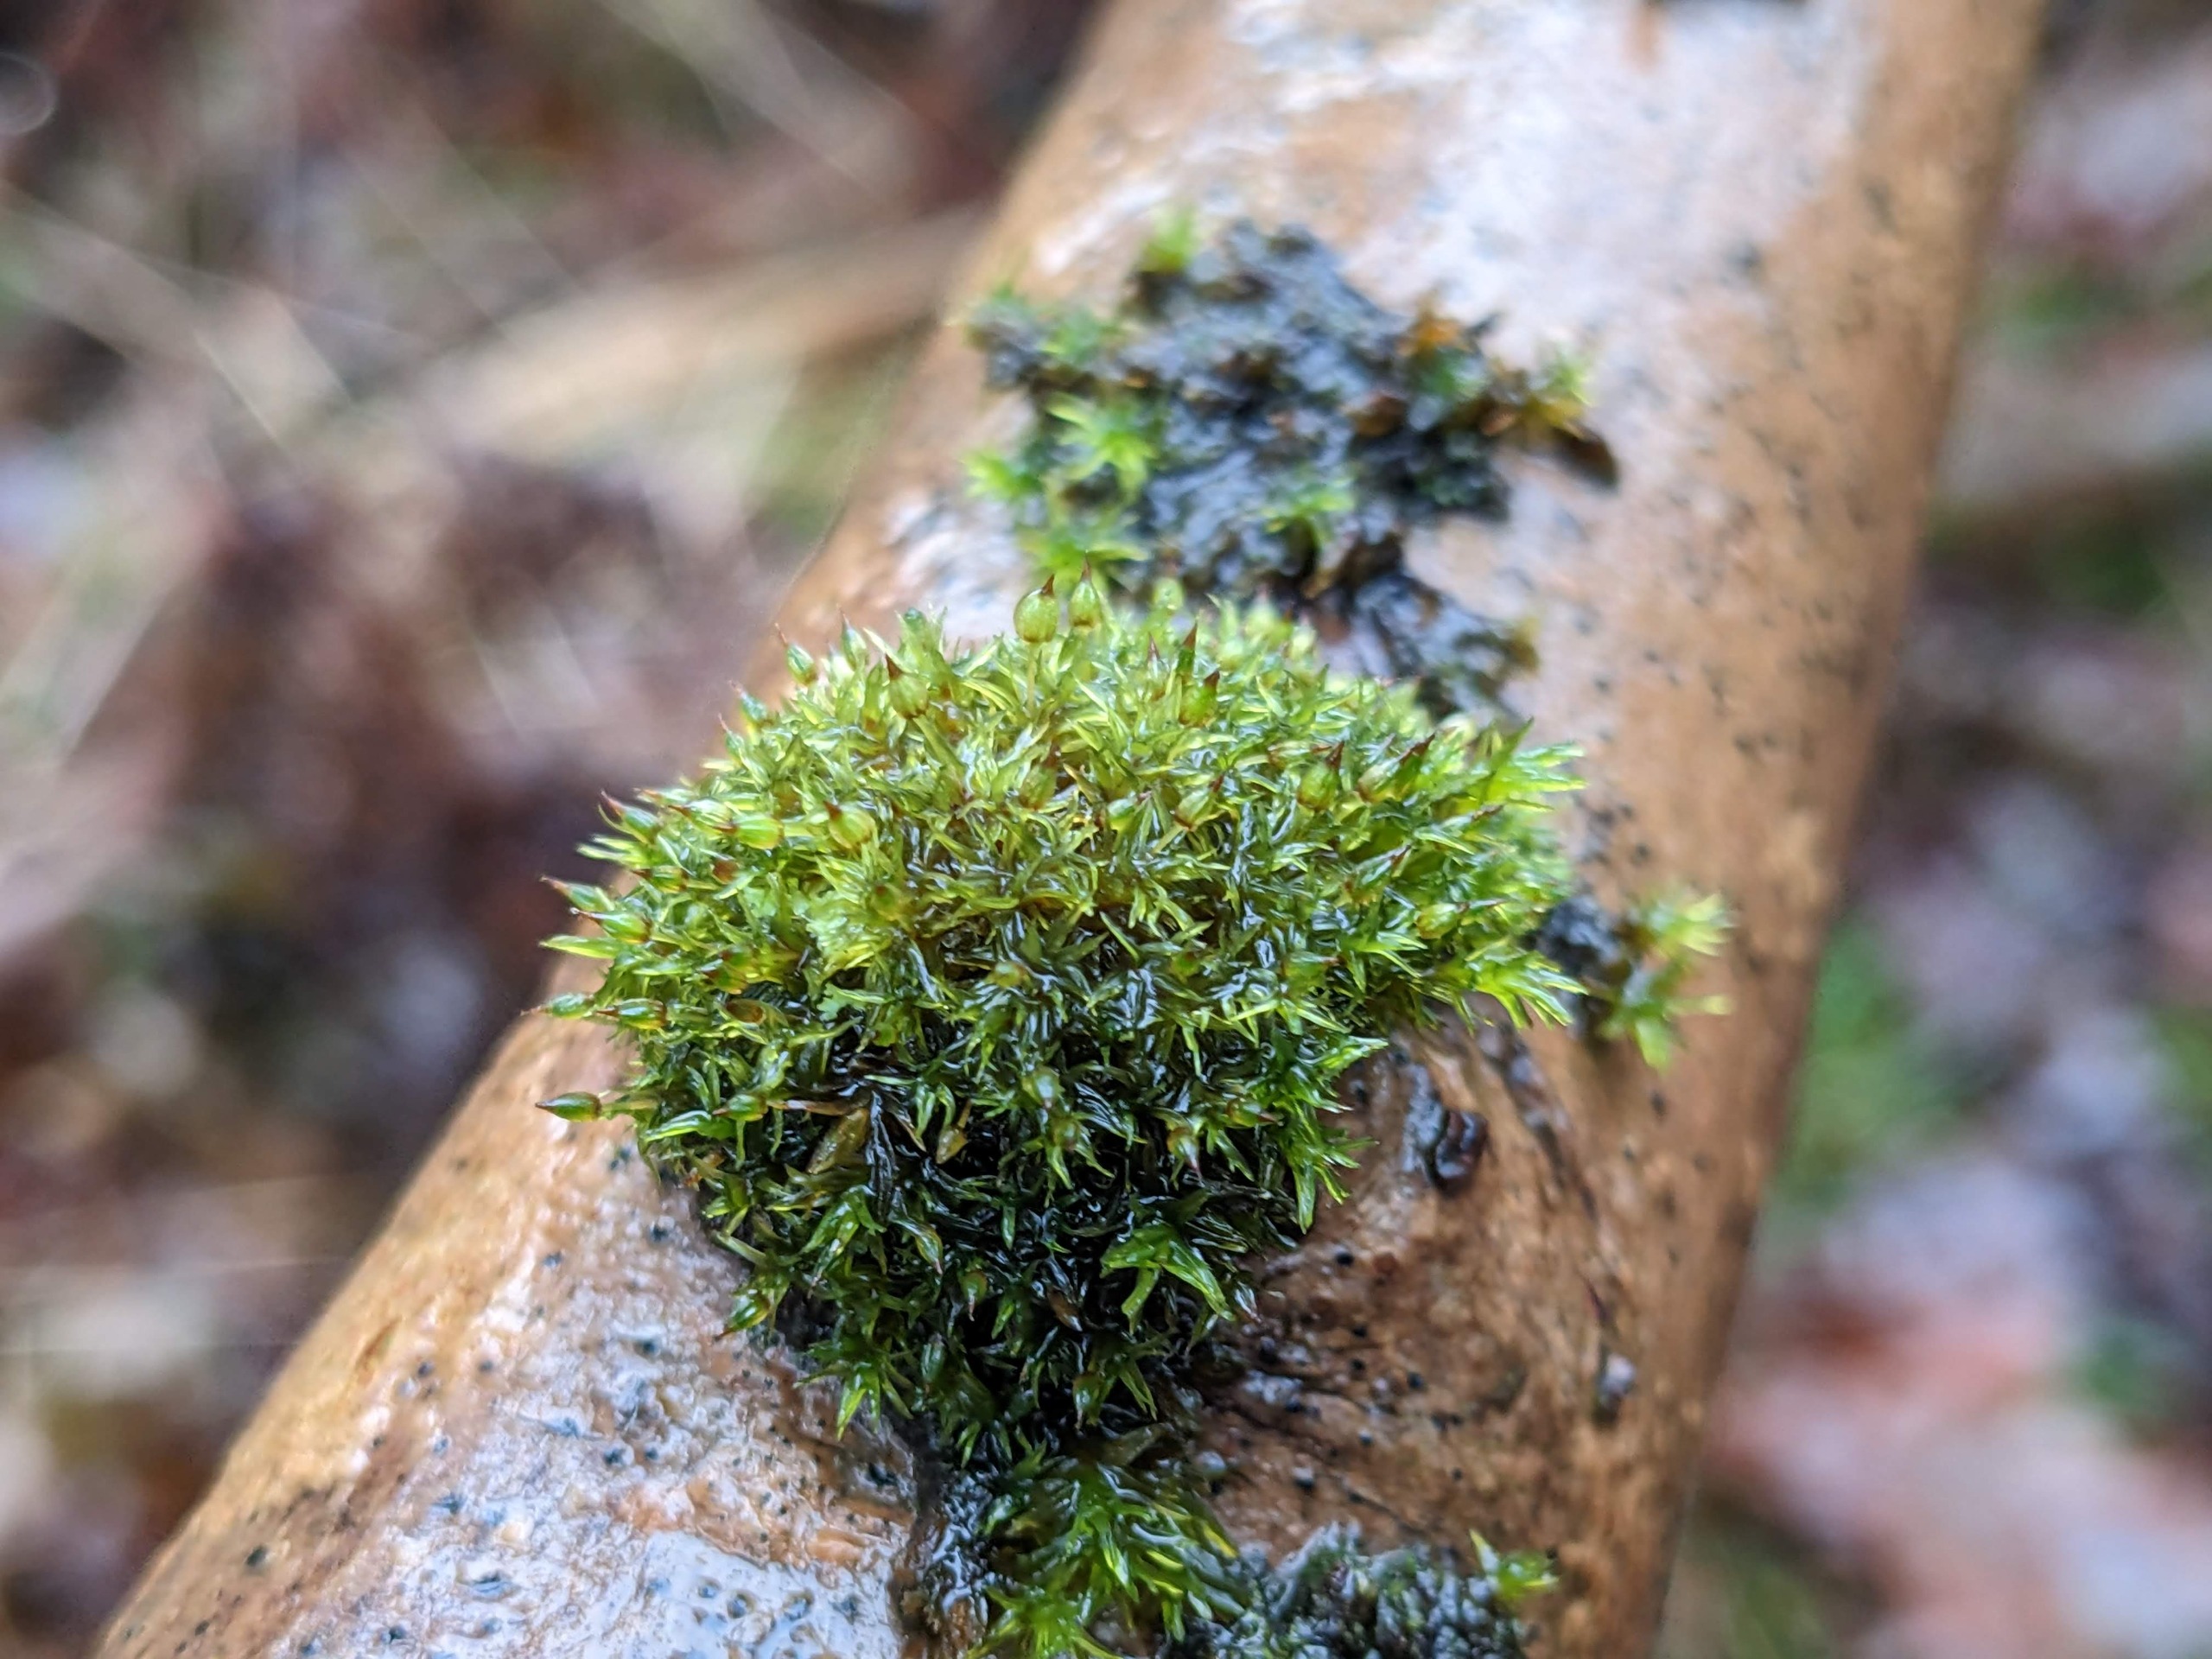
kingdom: Plantae
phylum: Bryophyta
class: Bryopsida
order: Orthotrichales
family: Orthotrichaceae
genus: Orthotrichum
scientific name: Orthotrichum pulchellum
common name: Smuk furehætte
